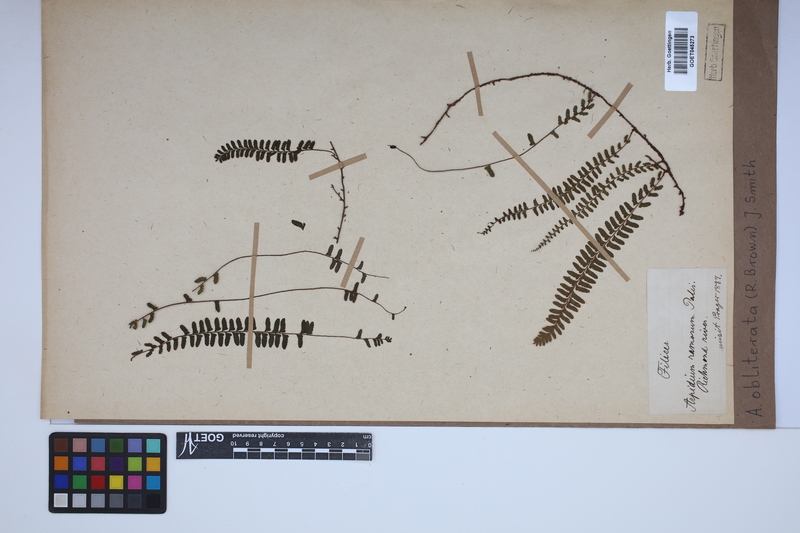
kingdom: Plantae
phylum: Tracheophyta
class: Polypodiopsida
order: Polypodiales
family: Nephrolepidaceae
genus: Nephrolepis
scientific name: Nephrolepis obliterata
